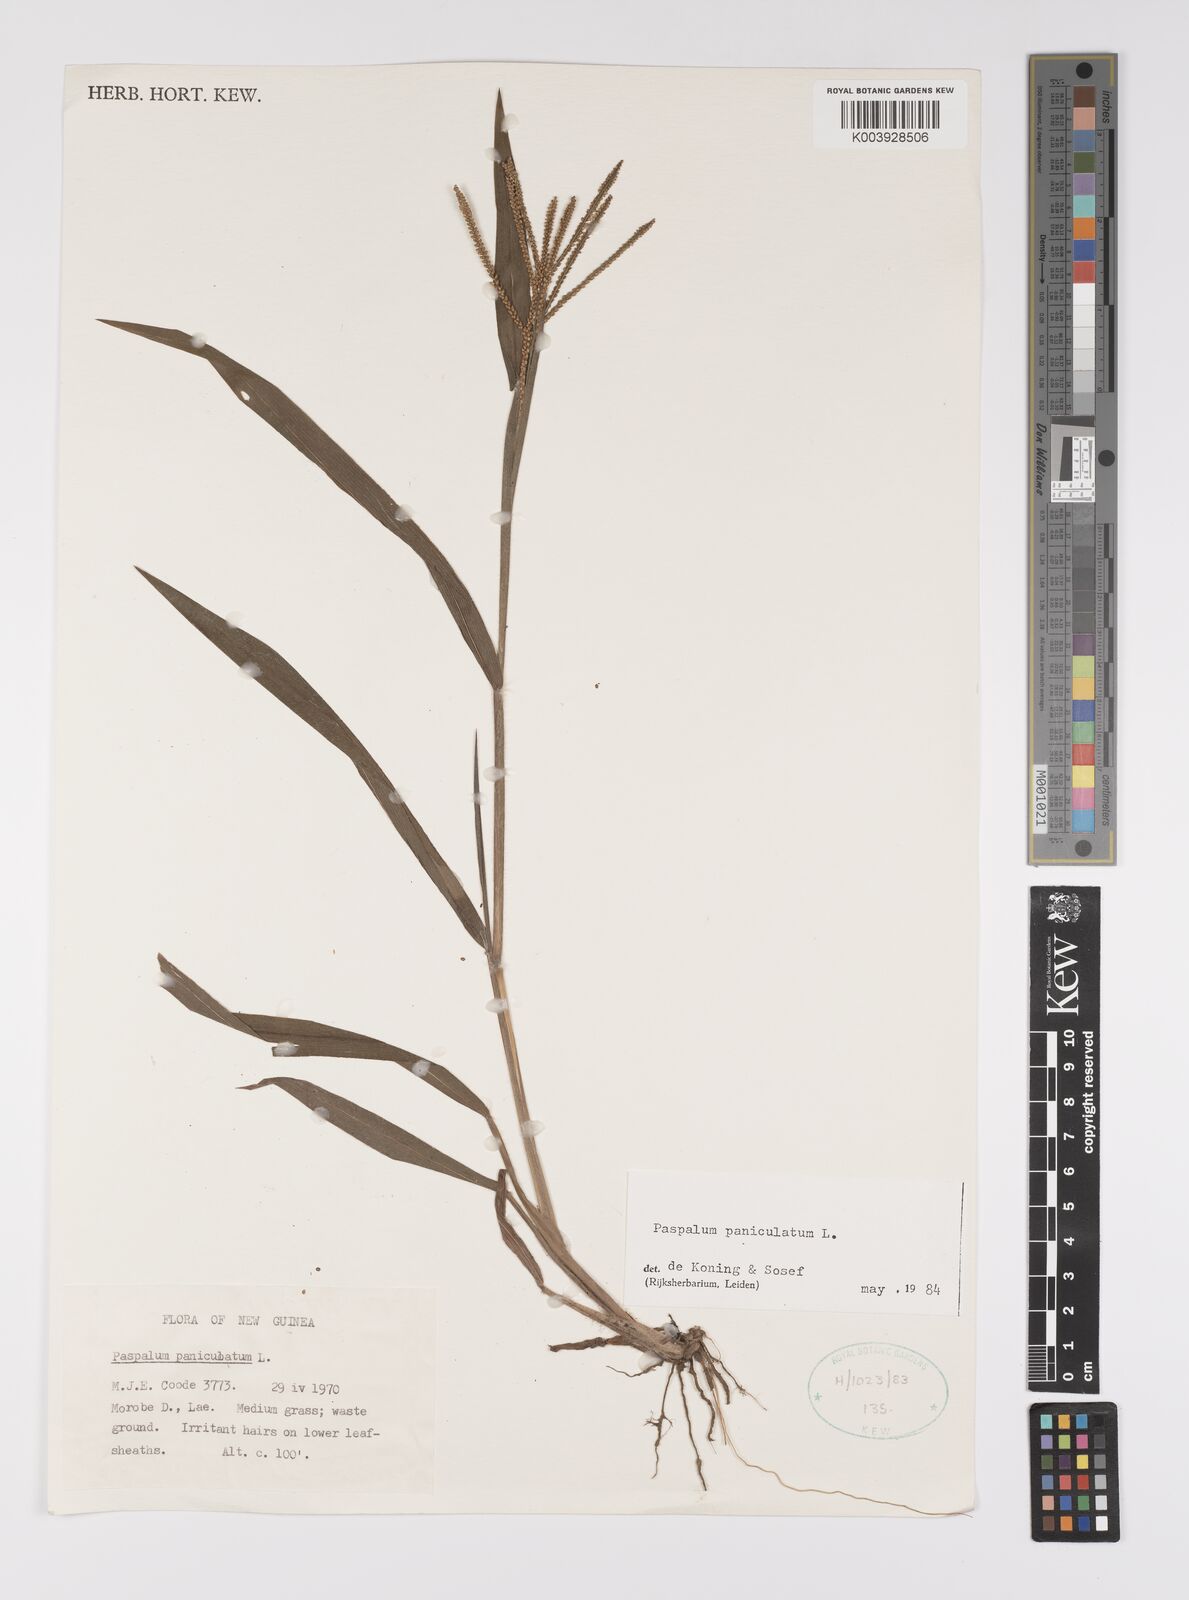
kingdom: Plantae
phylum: Tracheophyta
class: Liliopsida
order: Poales
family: Poaceae
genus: Paspalum
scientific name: Paspalum paniculatum
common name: Arrocillo
